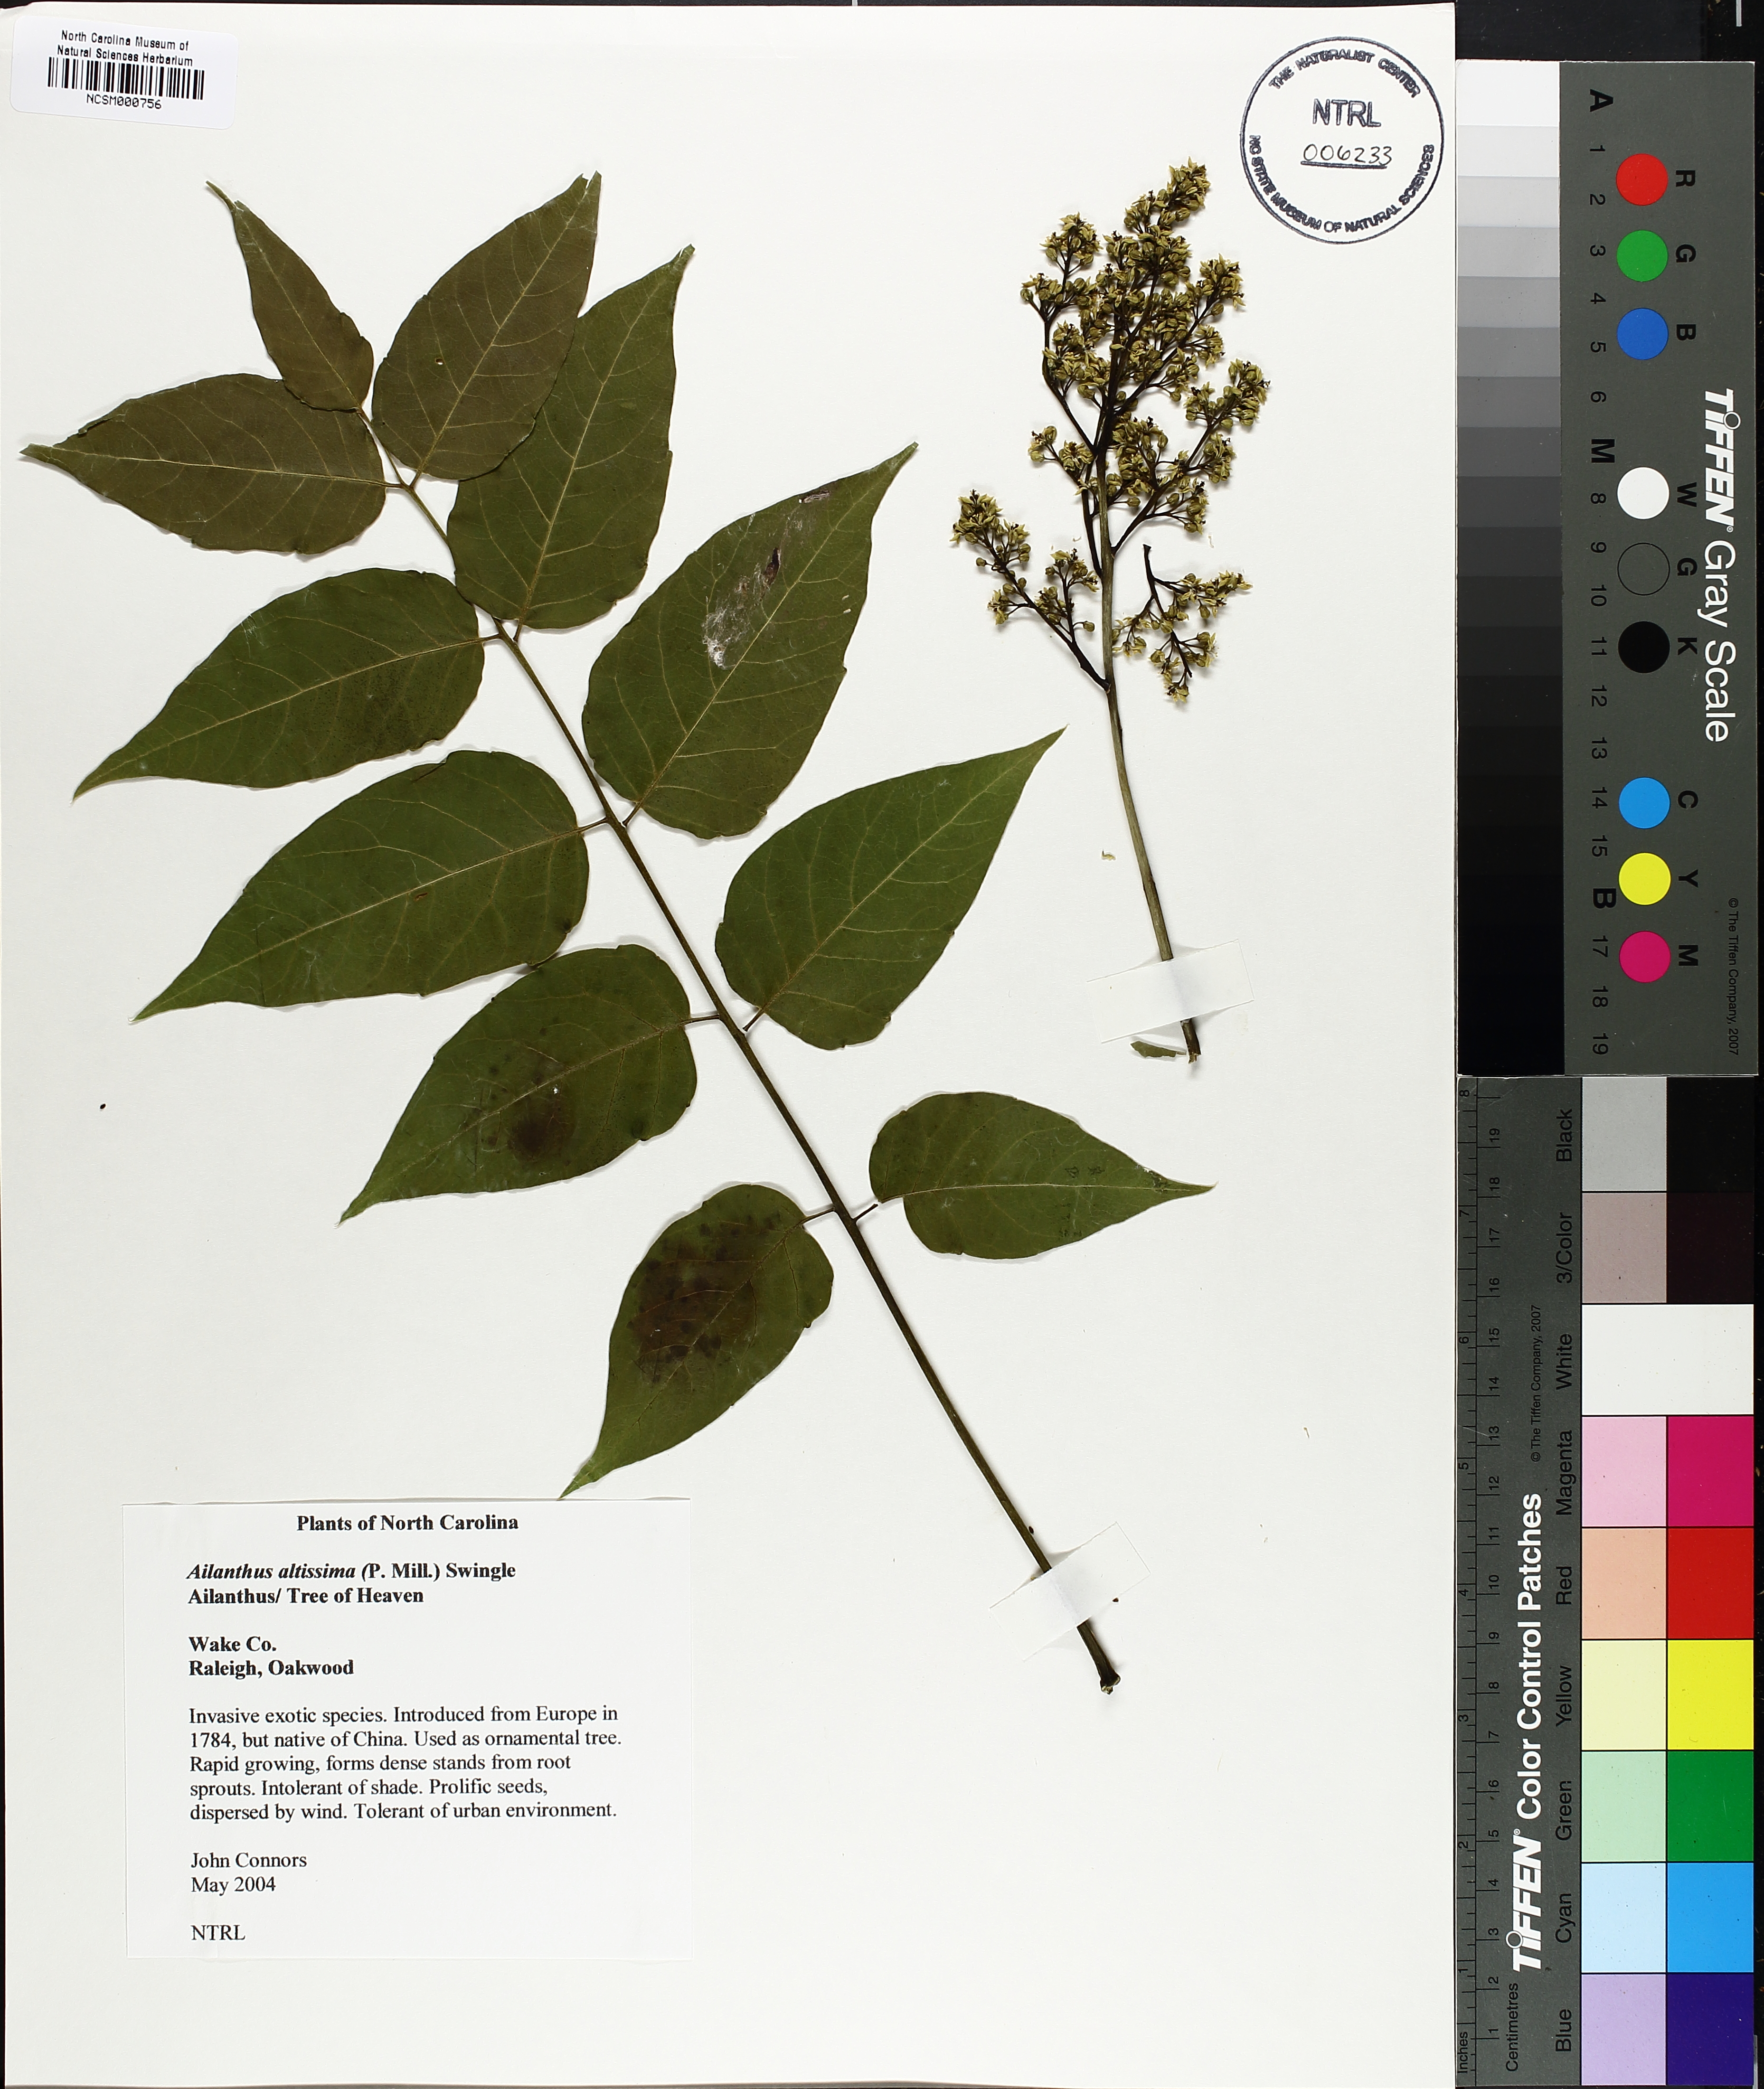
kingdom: Plantae
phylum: Tracheophyta
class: Magnoliopsida
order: Sapindales
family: Simaroubaceae
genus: Ailanthus
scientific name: Ailanthus altissima
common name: Tree-of-heaven
